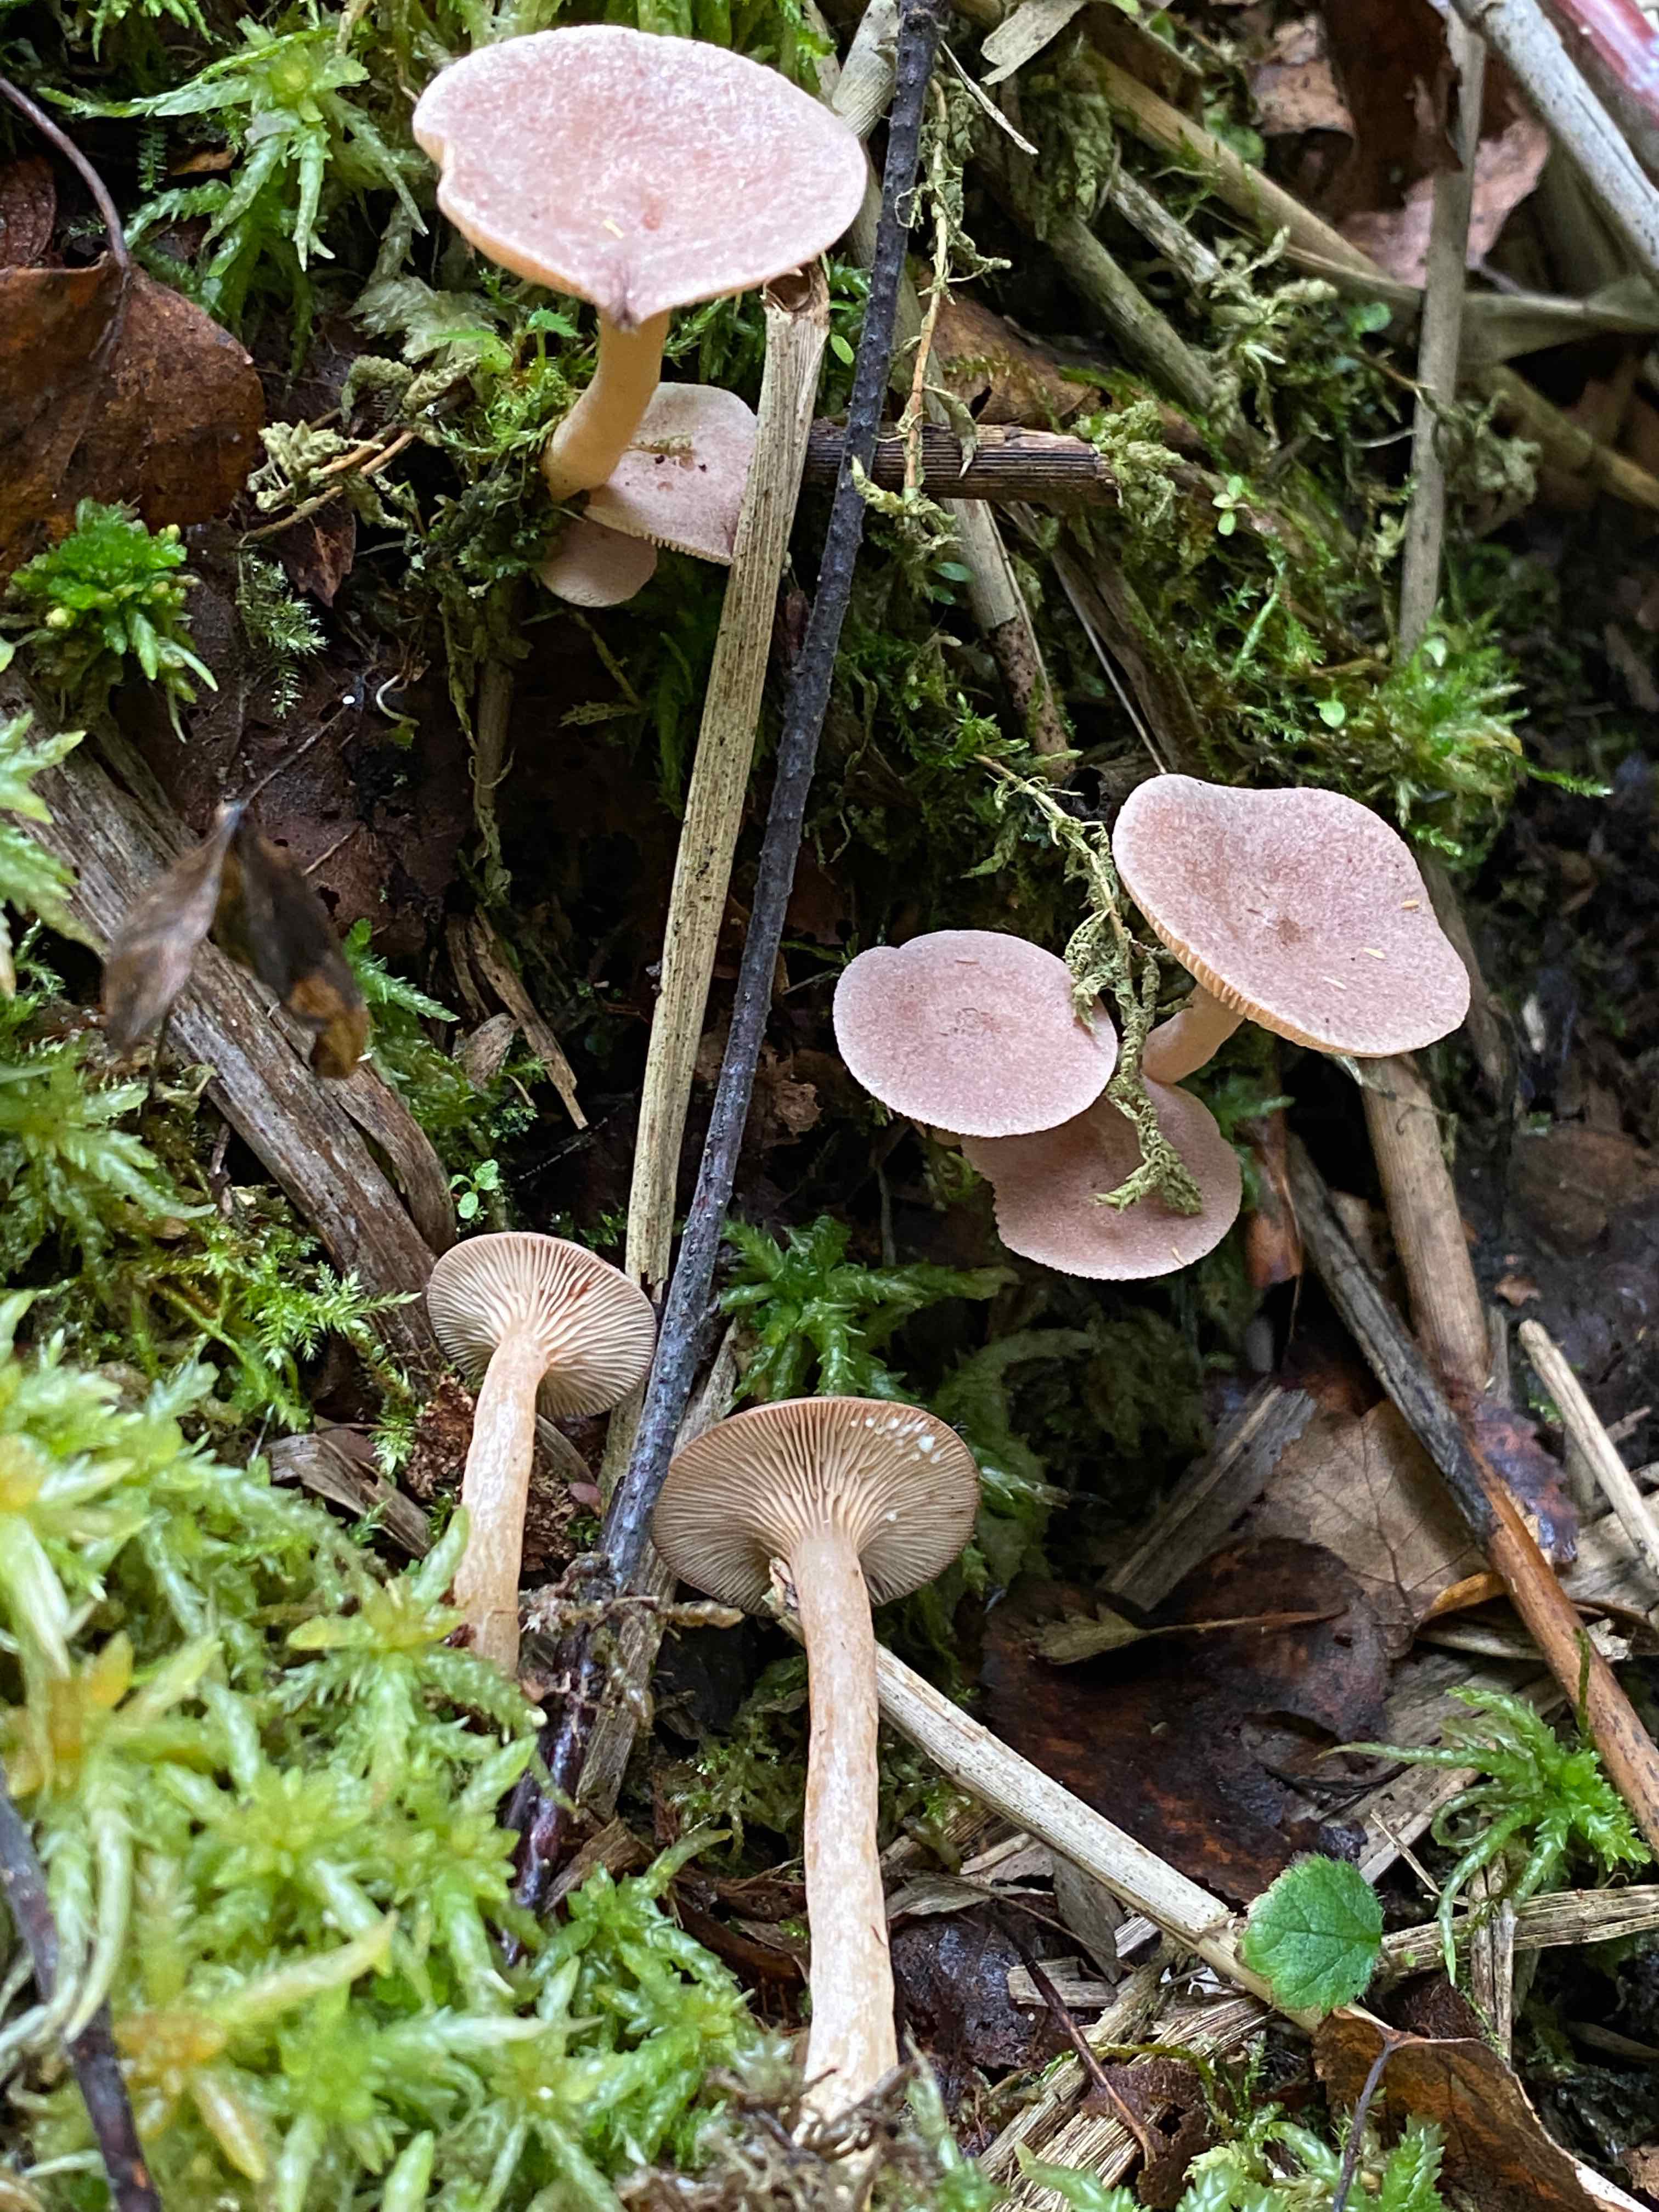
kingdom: Fungi
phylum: Basidiomycota
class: Agaricomycetes
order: Russulales
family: Russulaceae
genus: Lactarius
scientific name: Lactarius glyciosmus
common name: kokos-mælkehat
